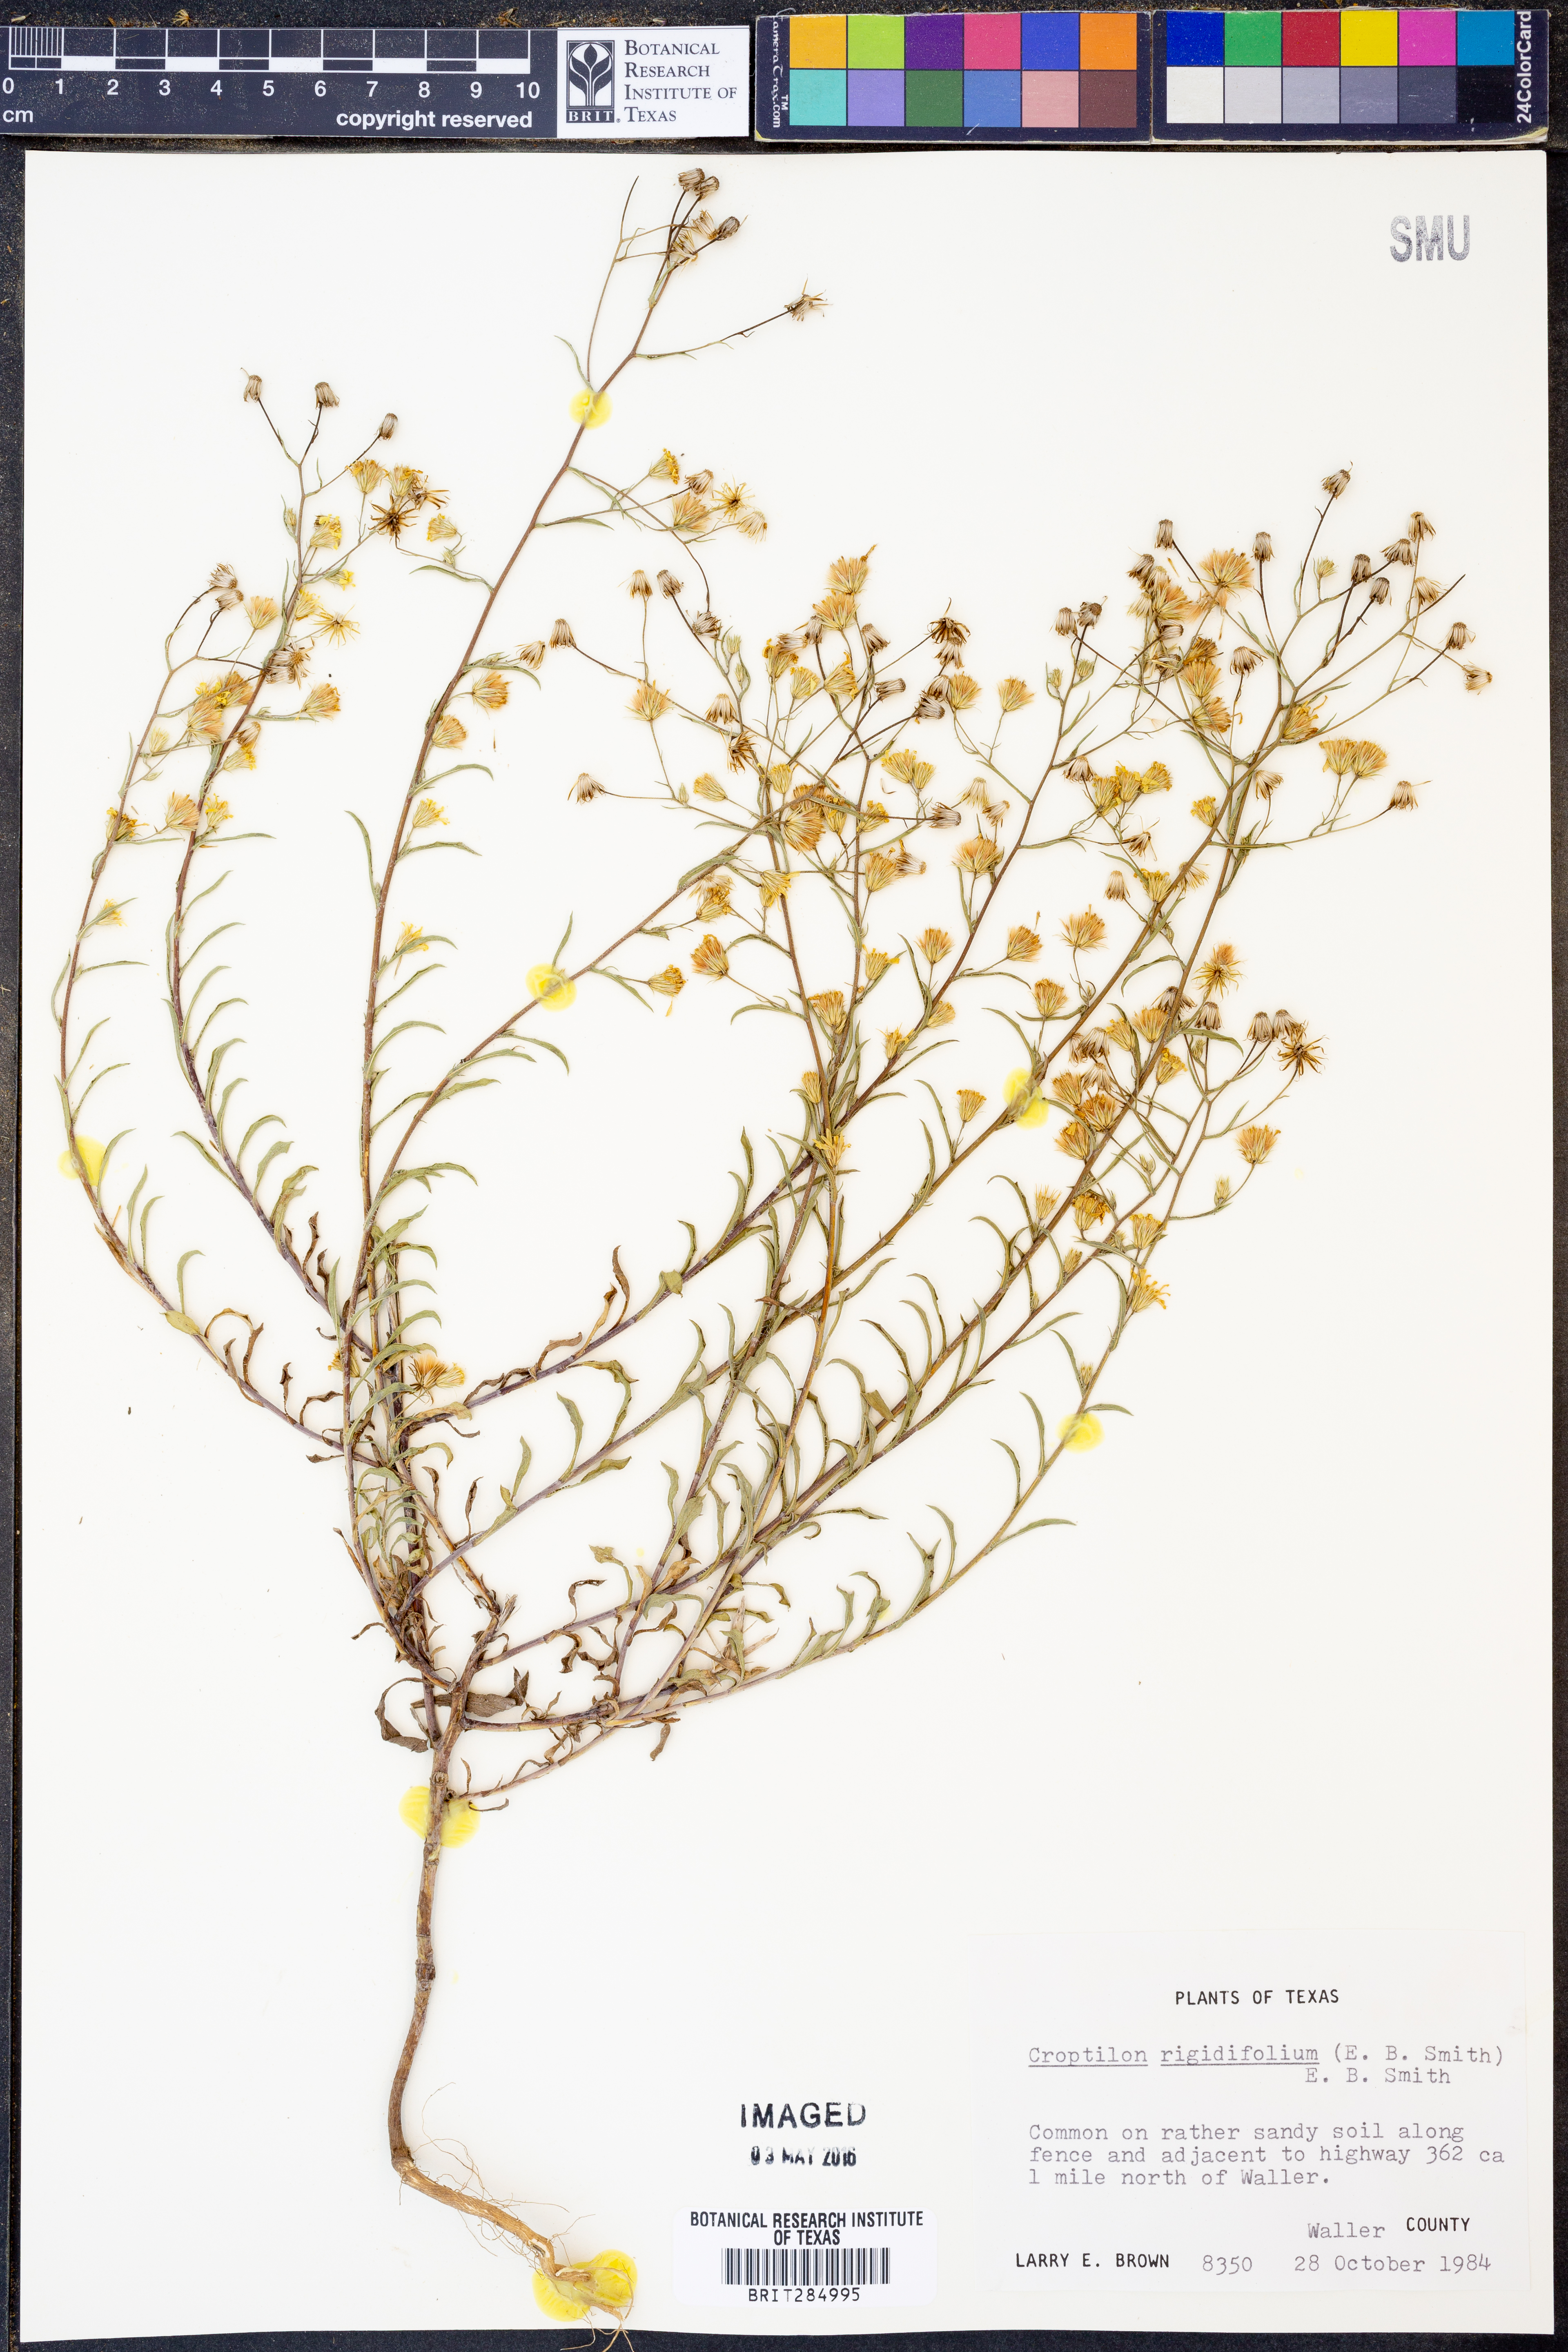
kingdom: Plantae
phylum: Tracheophyta
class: Magnoliopsida
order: Asterales
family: Asteraceae
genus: Croptilon
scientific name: Croptilon rigidifolium
